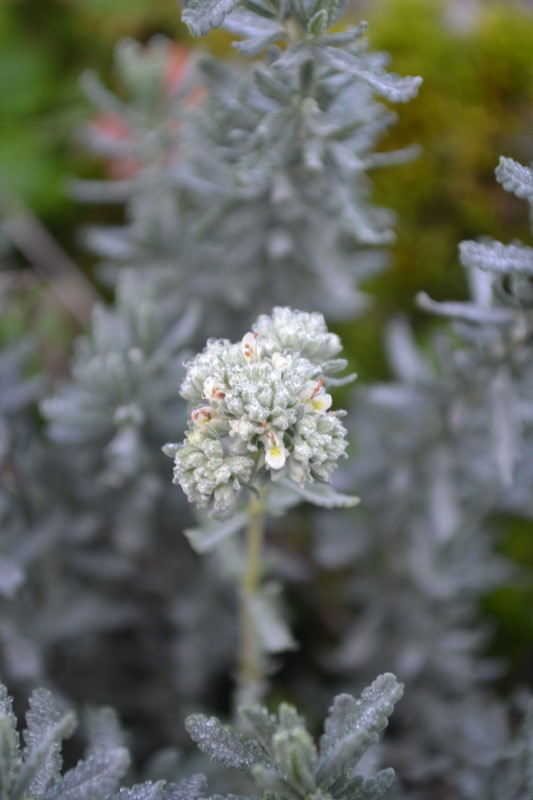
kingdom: Plantae
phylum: Tracheophyta
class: Magnoliopsida
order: Lamiales
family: Lamiaceae
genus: Teucrium
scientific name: Teucrium polium
